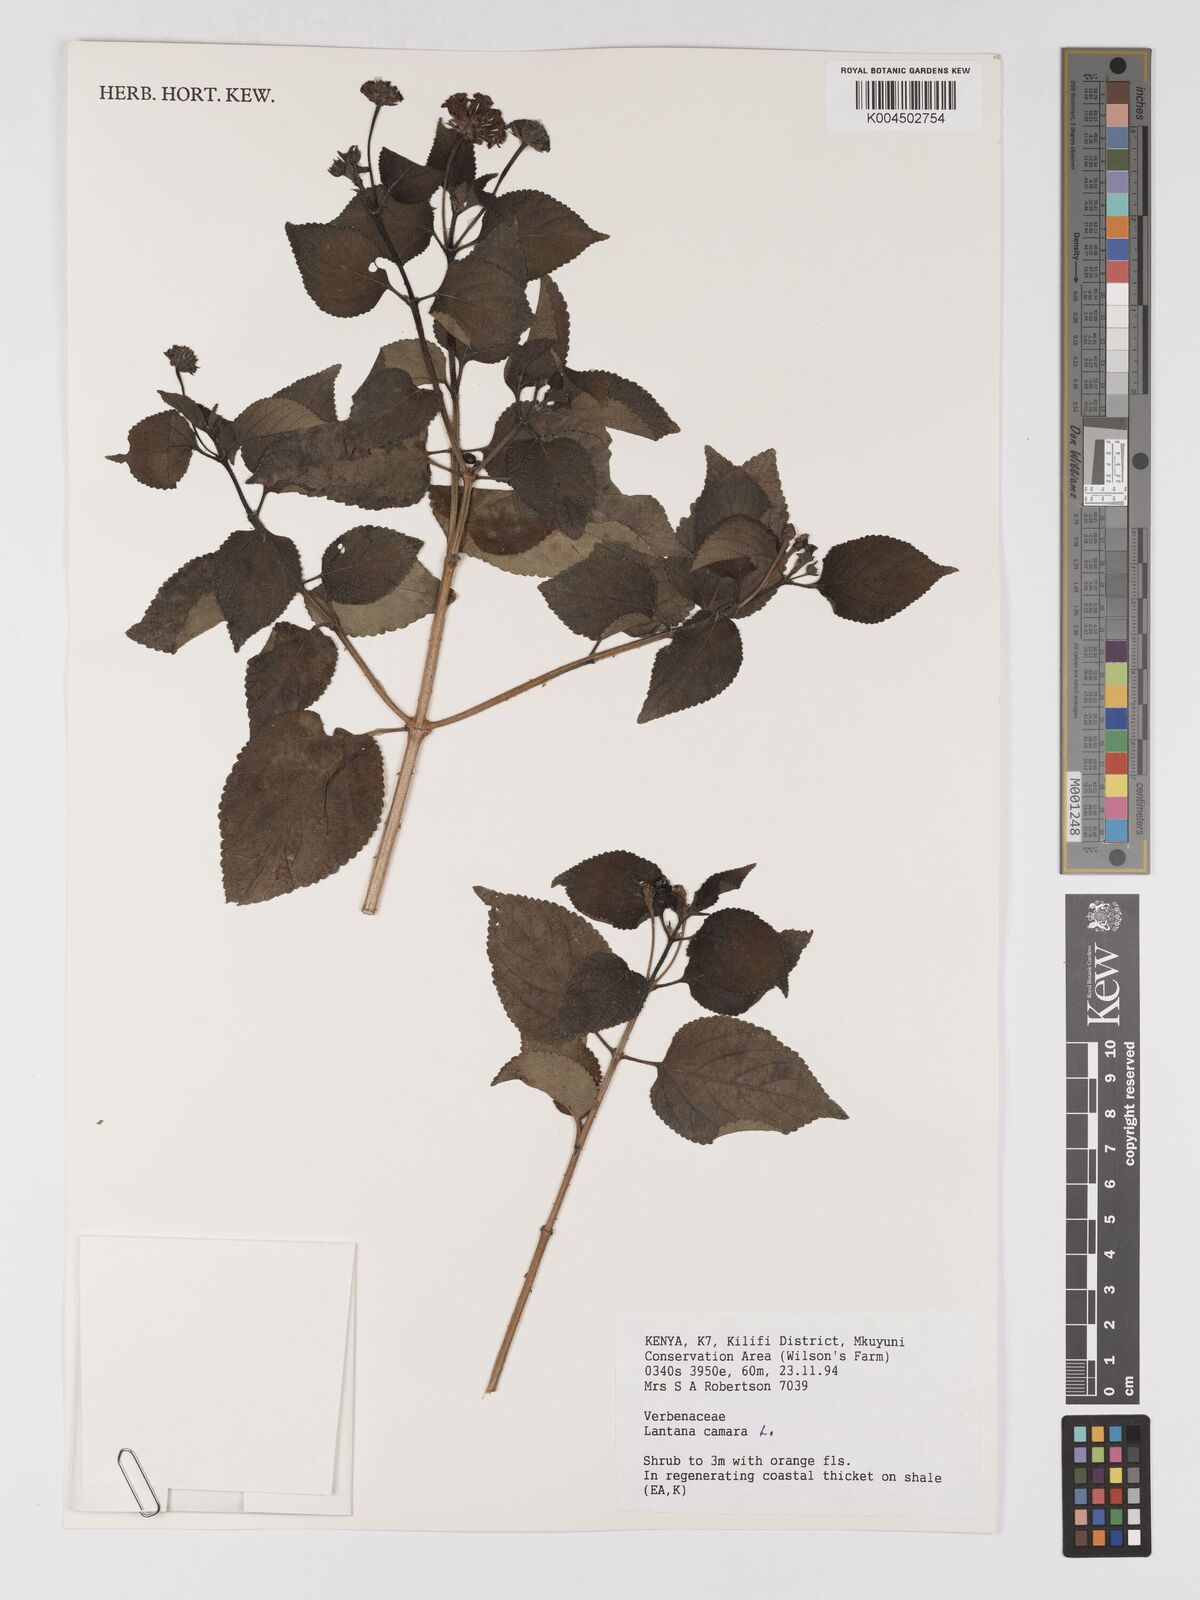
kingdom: Plantae
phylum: Tracheophyta
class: Magnoliopsida
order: Lamiales
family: Verbenaceae
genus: Lantana
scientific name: Lantana camara
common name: Lantana
